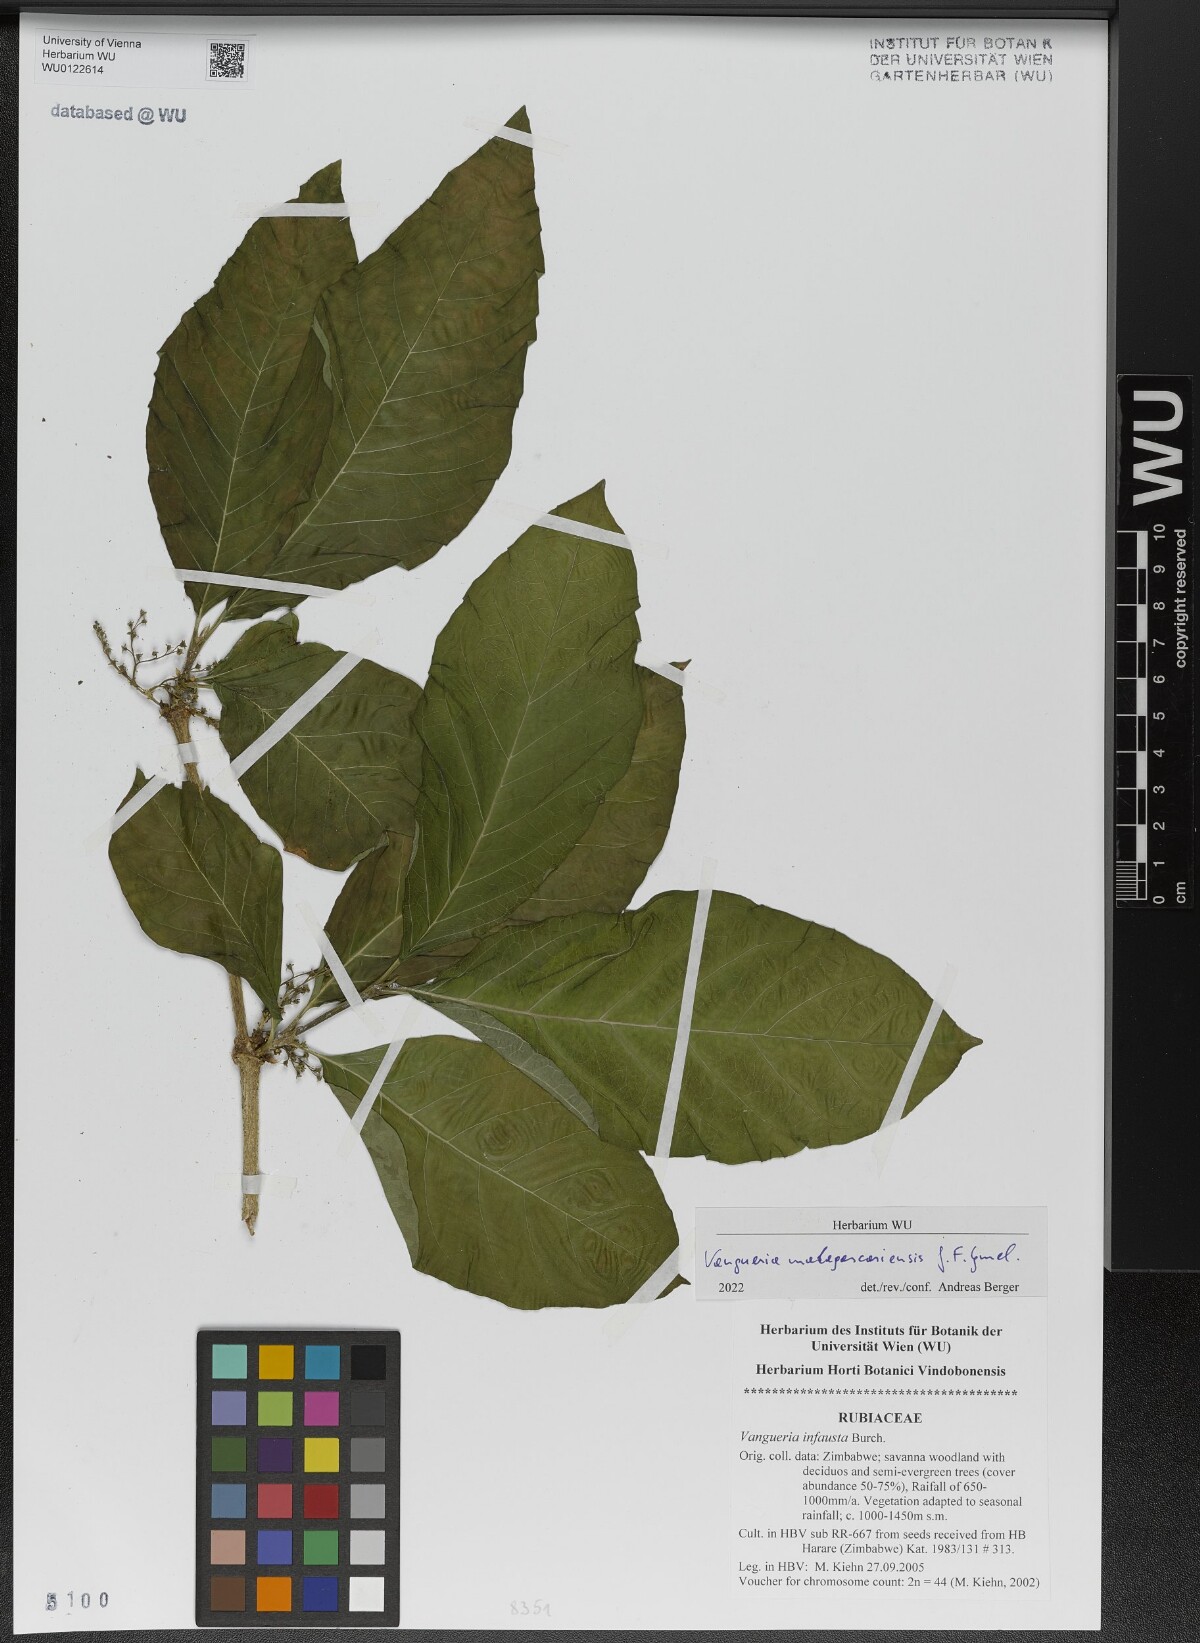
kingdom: Plantae
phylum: Tracheophyta
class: Magnoliopsida
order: Gentianales
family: Rubiaceae
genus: Vangueria
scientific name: Vangueria madagascariensis
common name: Smooth wild-medlar
